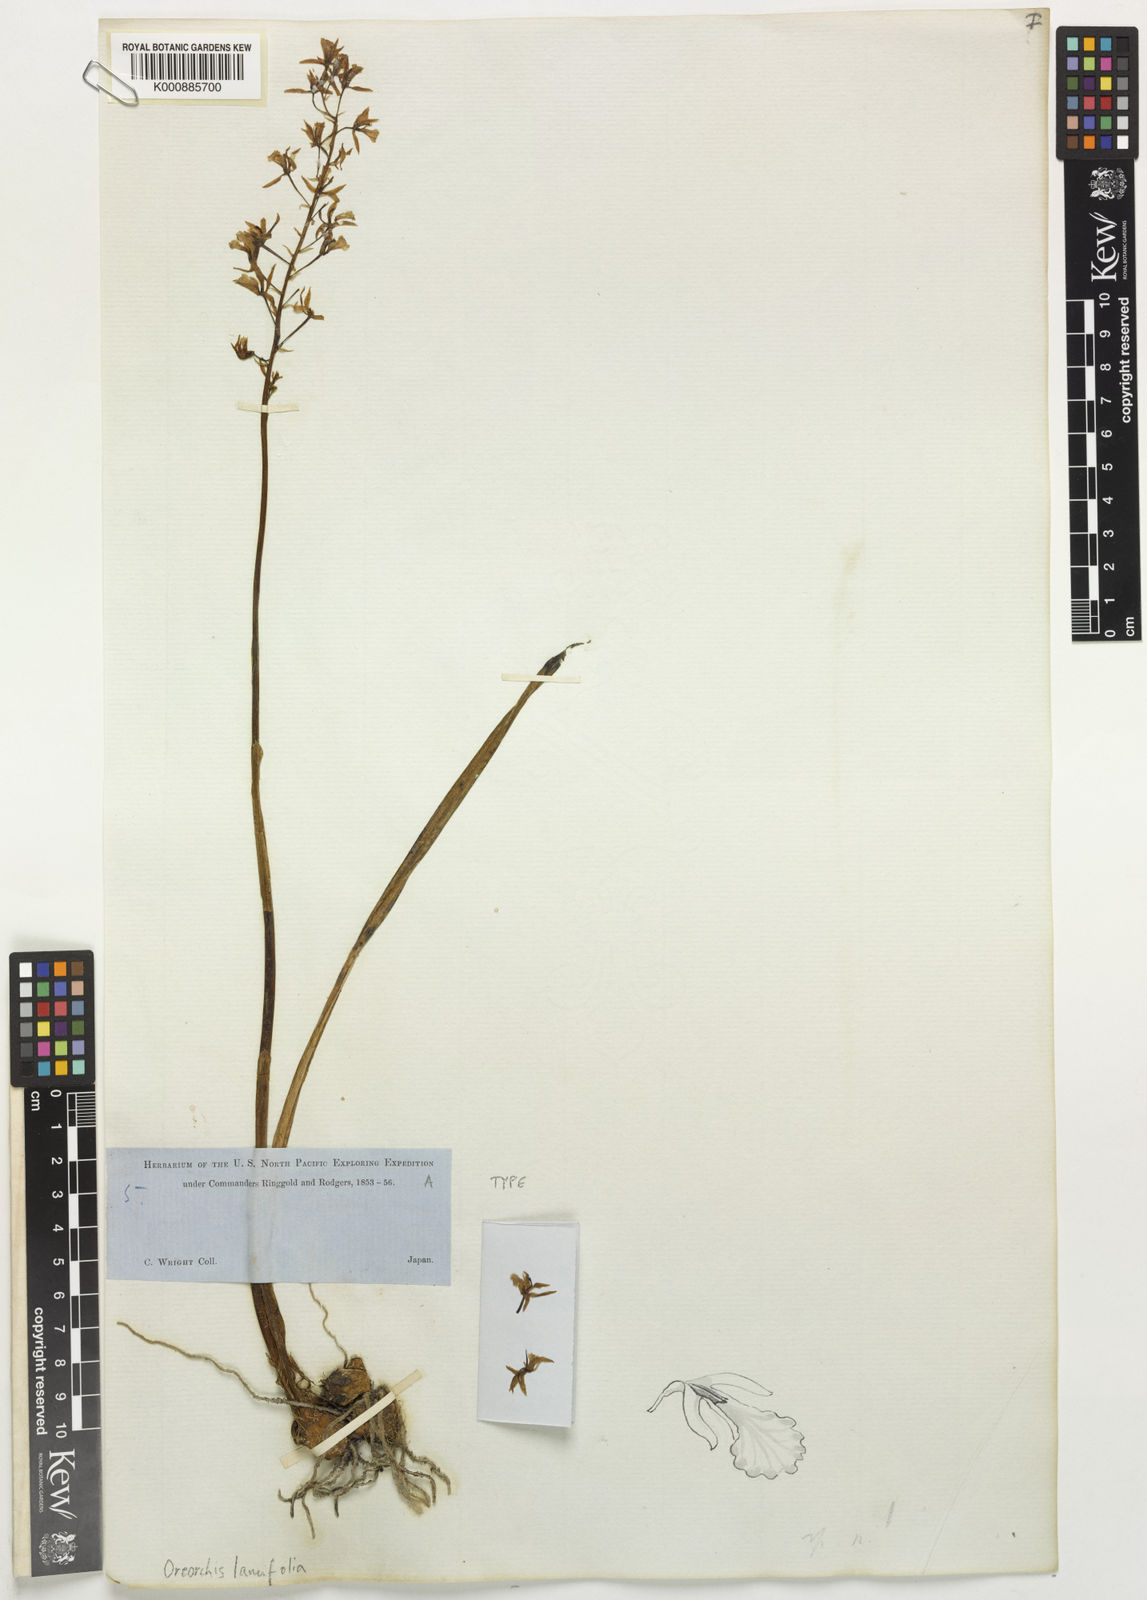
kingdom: Plantae
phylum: Tracheophyta
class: Liliopsida
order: Asparagales
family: Orchidaceae
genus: Oreorchis
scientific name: Oreorchis patens
